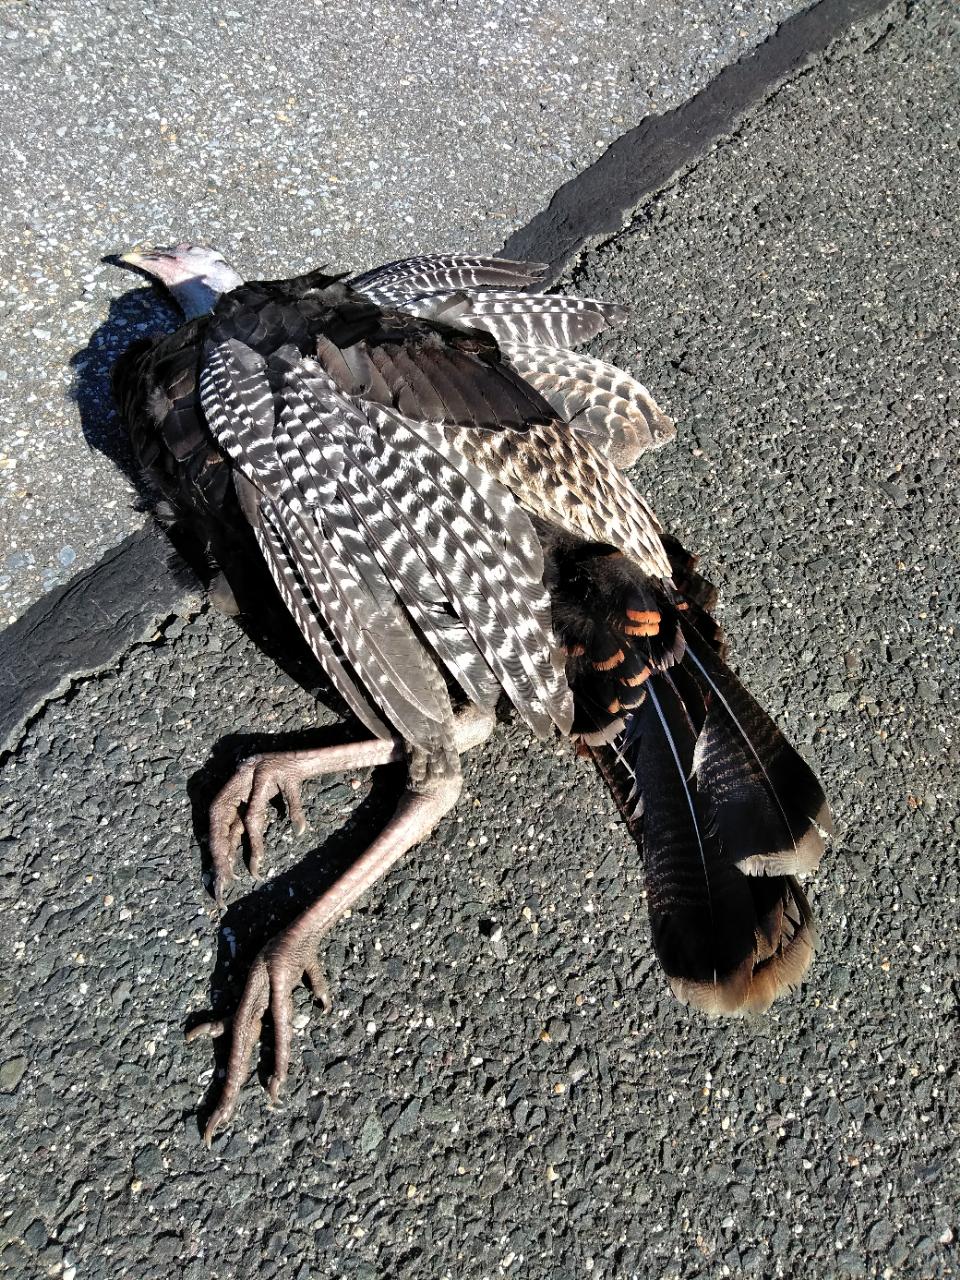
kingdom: Animalia
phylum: Chordata
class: Aves
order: Galliformes
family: Phasianidae
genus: Meleagris
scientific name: Meleagris gallopavo
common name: Wild turkey
